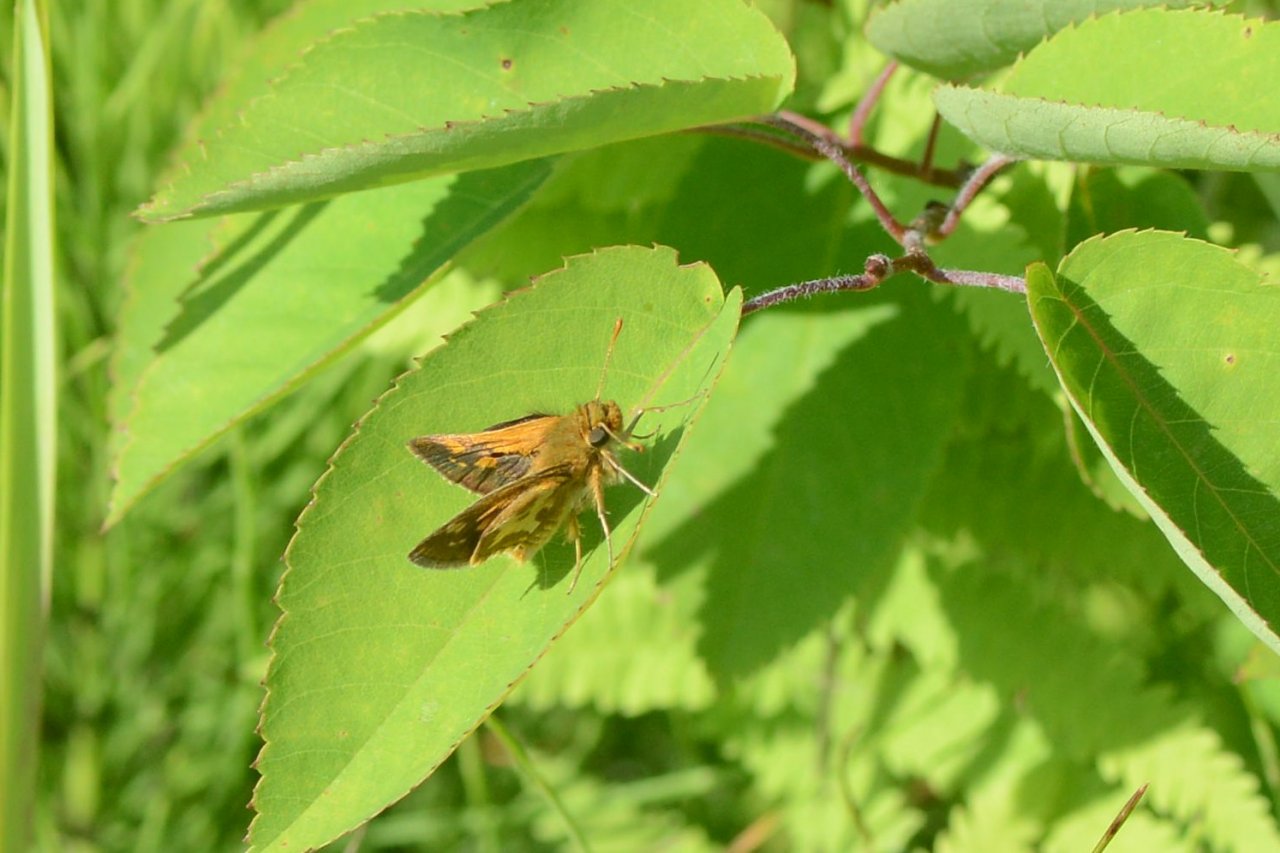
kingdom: Animalia
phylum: Arthropoda
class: Insecta
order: Lepidoptera
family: Hesperiidae
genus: Polites
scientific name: Polites coras
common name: Peck's Skipper
